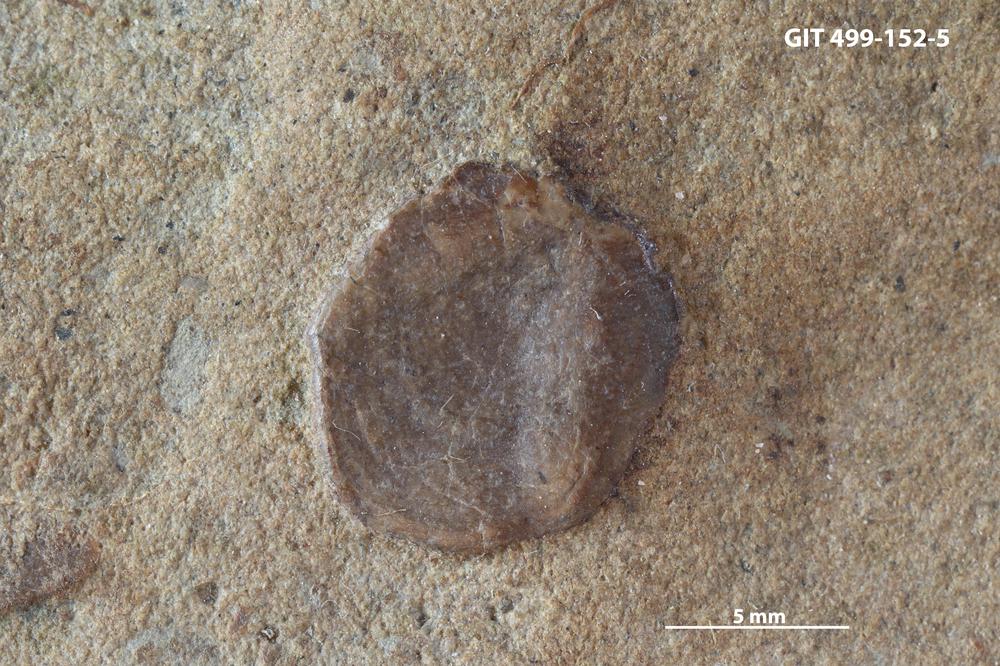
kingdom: Animalia
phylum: Chordata
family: Holoptychiidae
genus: Glyptolepis
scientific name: Glyptolepis
